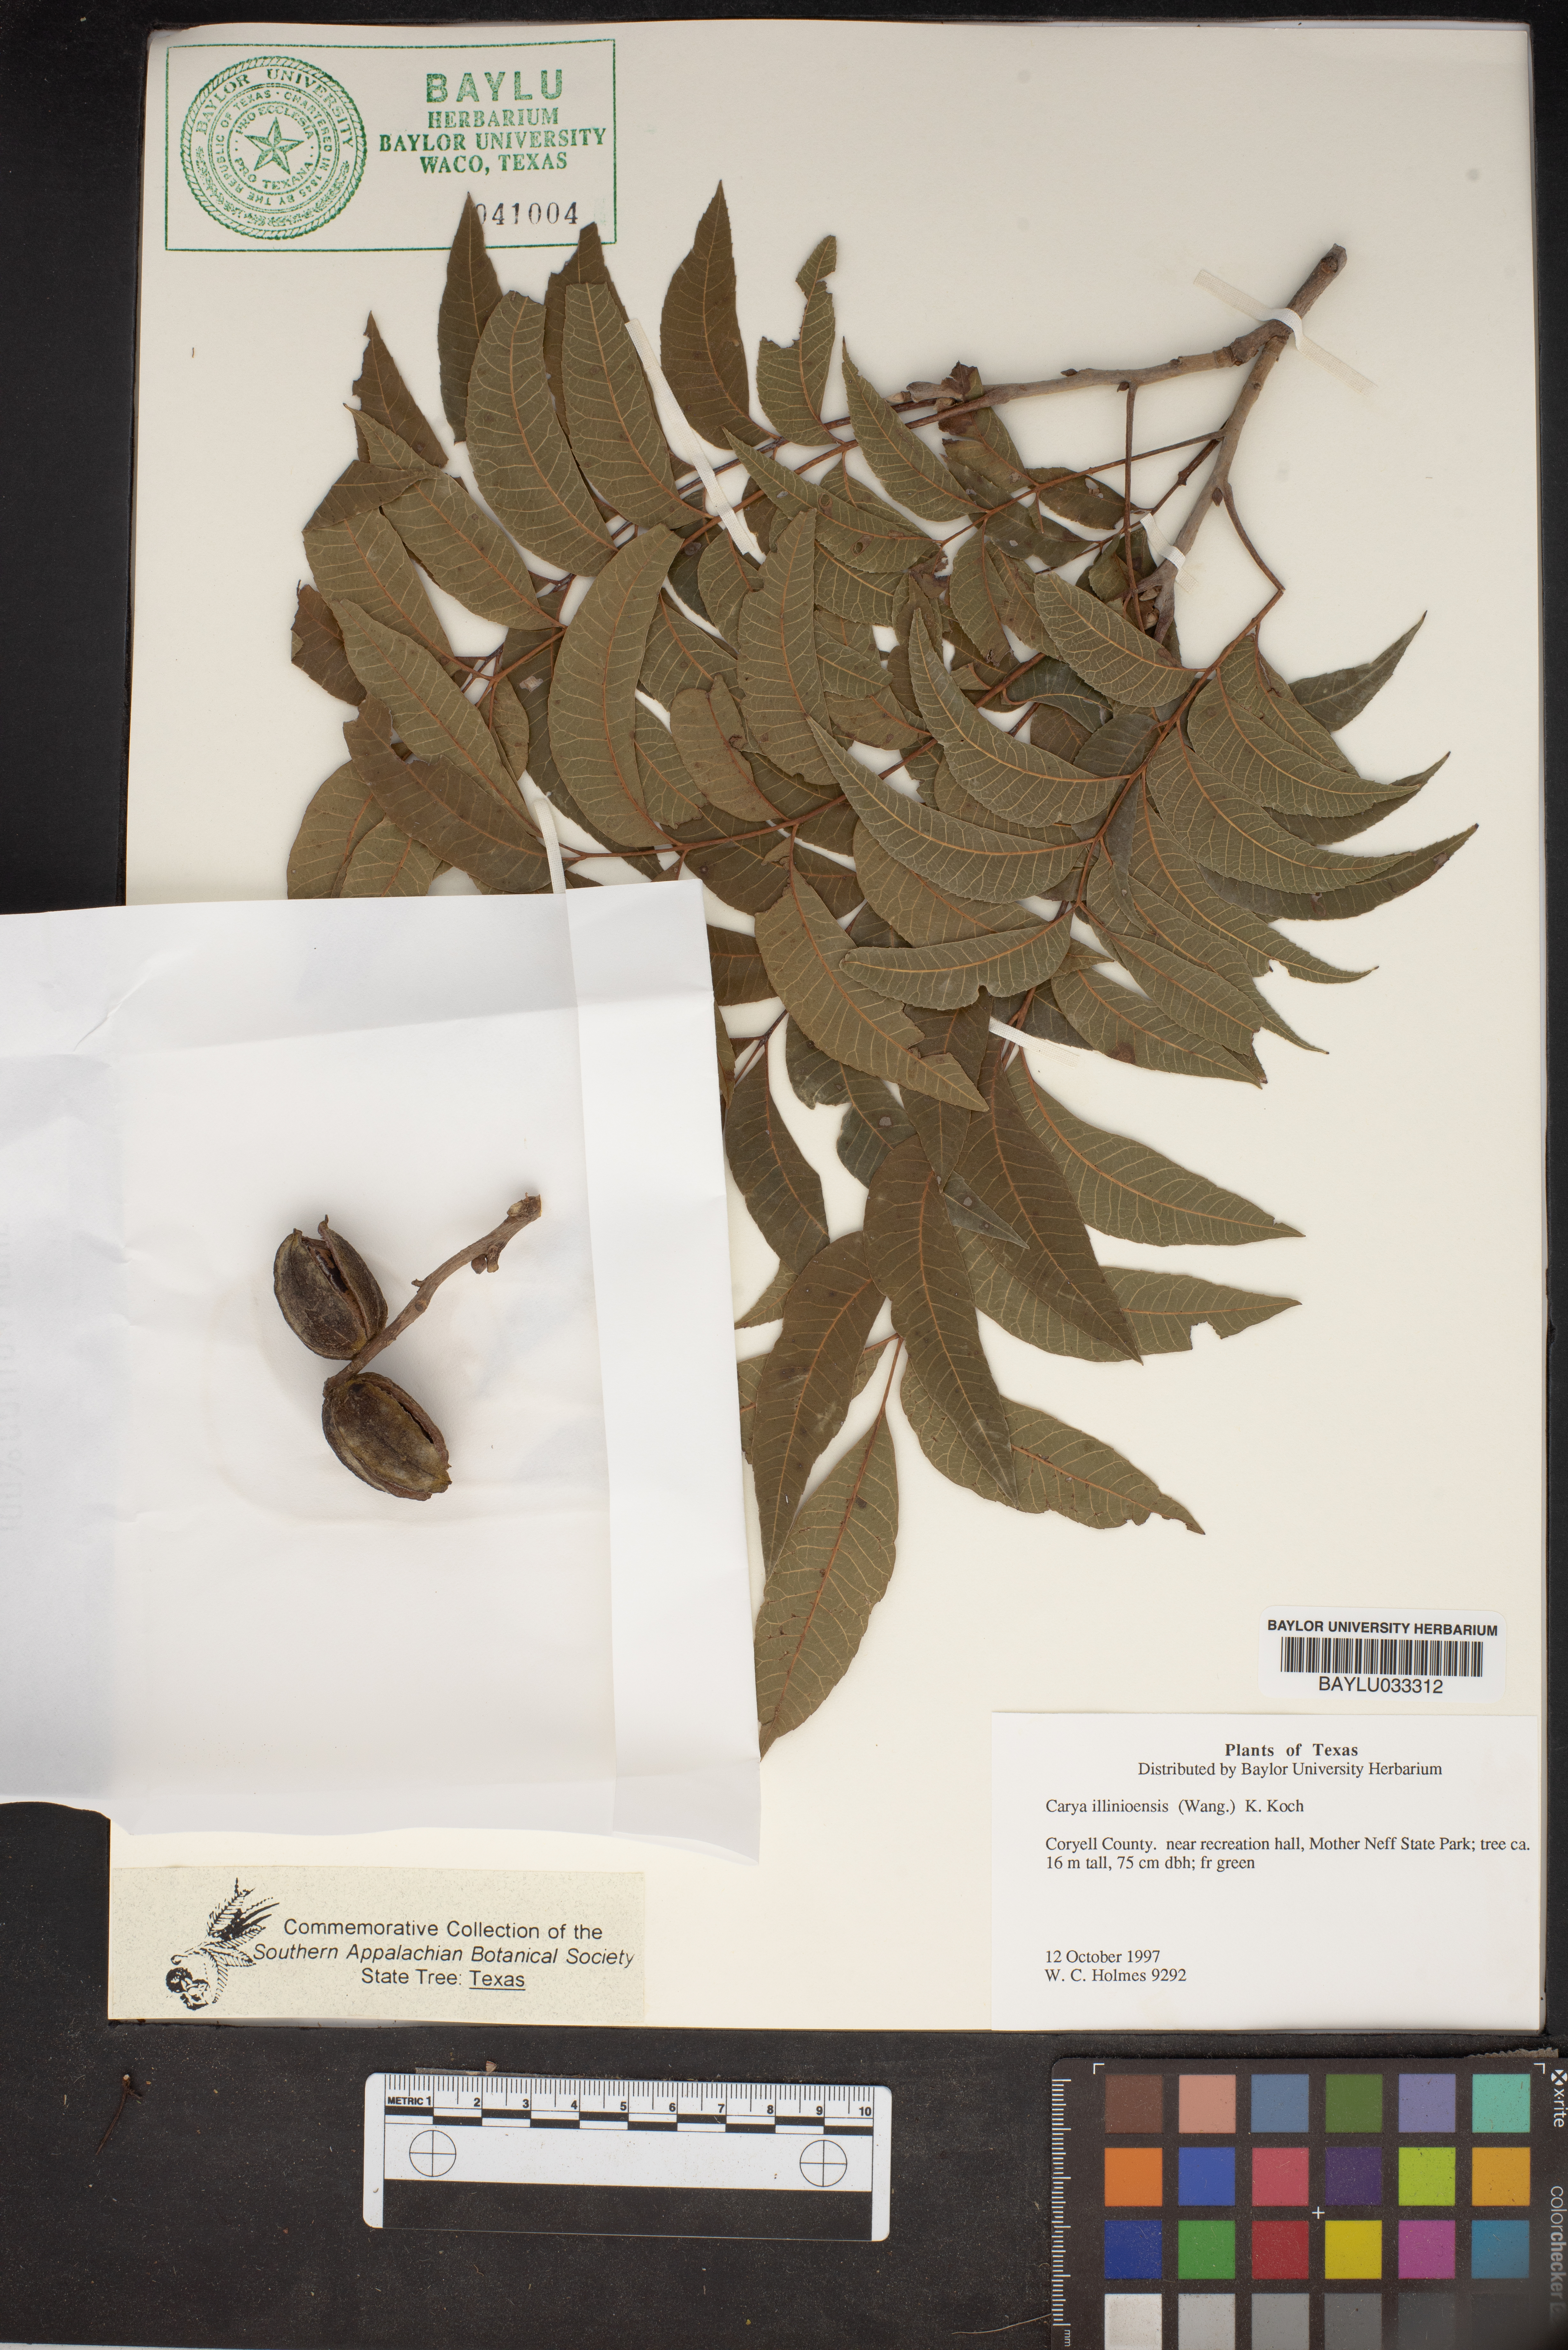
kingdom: Plantae
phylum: Tracheophyta
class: Magnoliopsida
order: Fagales
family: Juglandaceae
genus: Carya
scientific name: Carya illinoinensis
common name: Pecan
